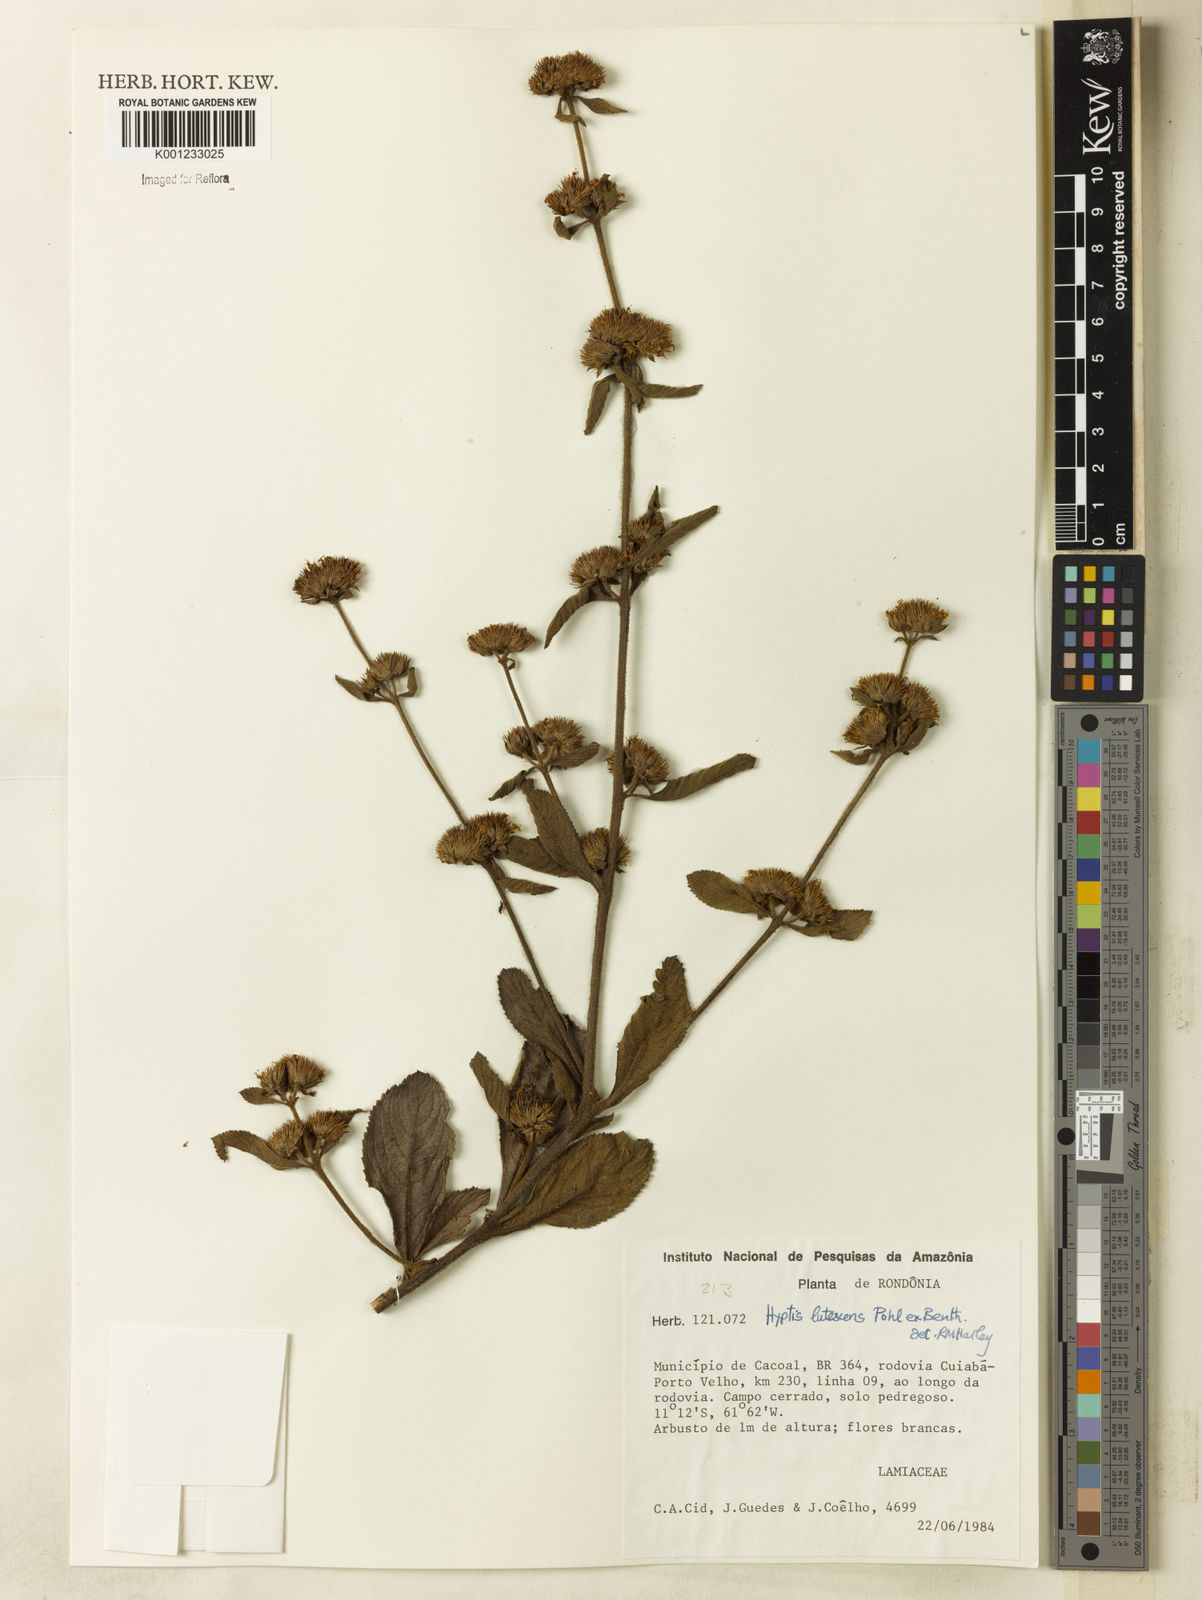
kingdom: Plantae
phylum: Tracheophyta
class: Magnoliopsida
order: Lamiales
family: Lamiaceae
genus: Hyptis
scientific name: Hyptis lutescens
